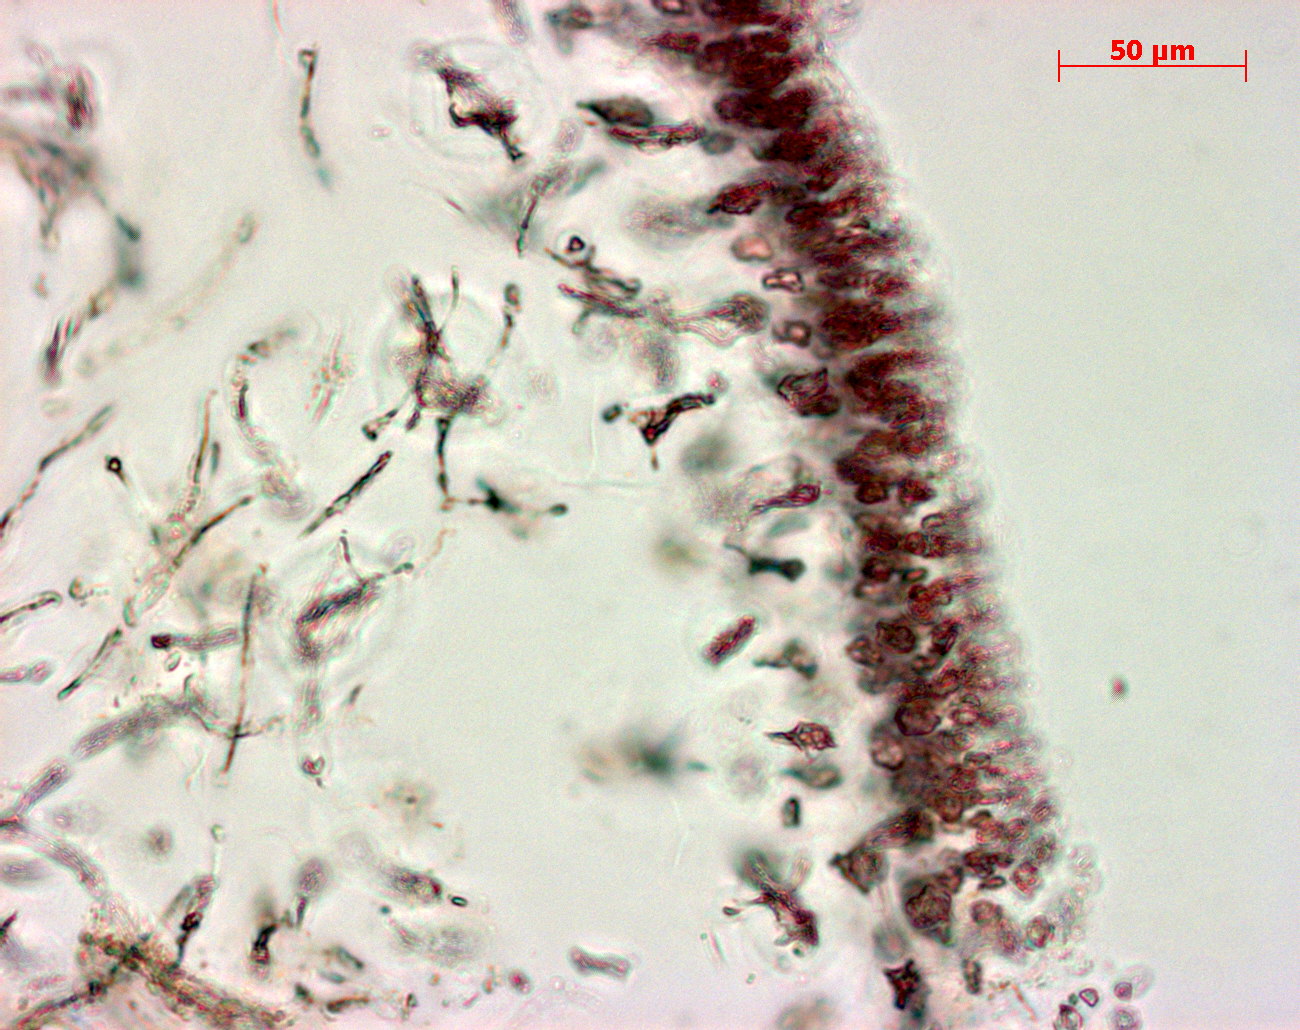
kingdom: Plantae
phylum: Rhodophyta
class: Florideophyceae
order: Gigartinales
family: Kallymeniaceae
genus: Psaromenia
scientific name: Psaromenia berggrenii
